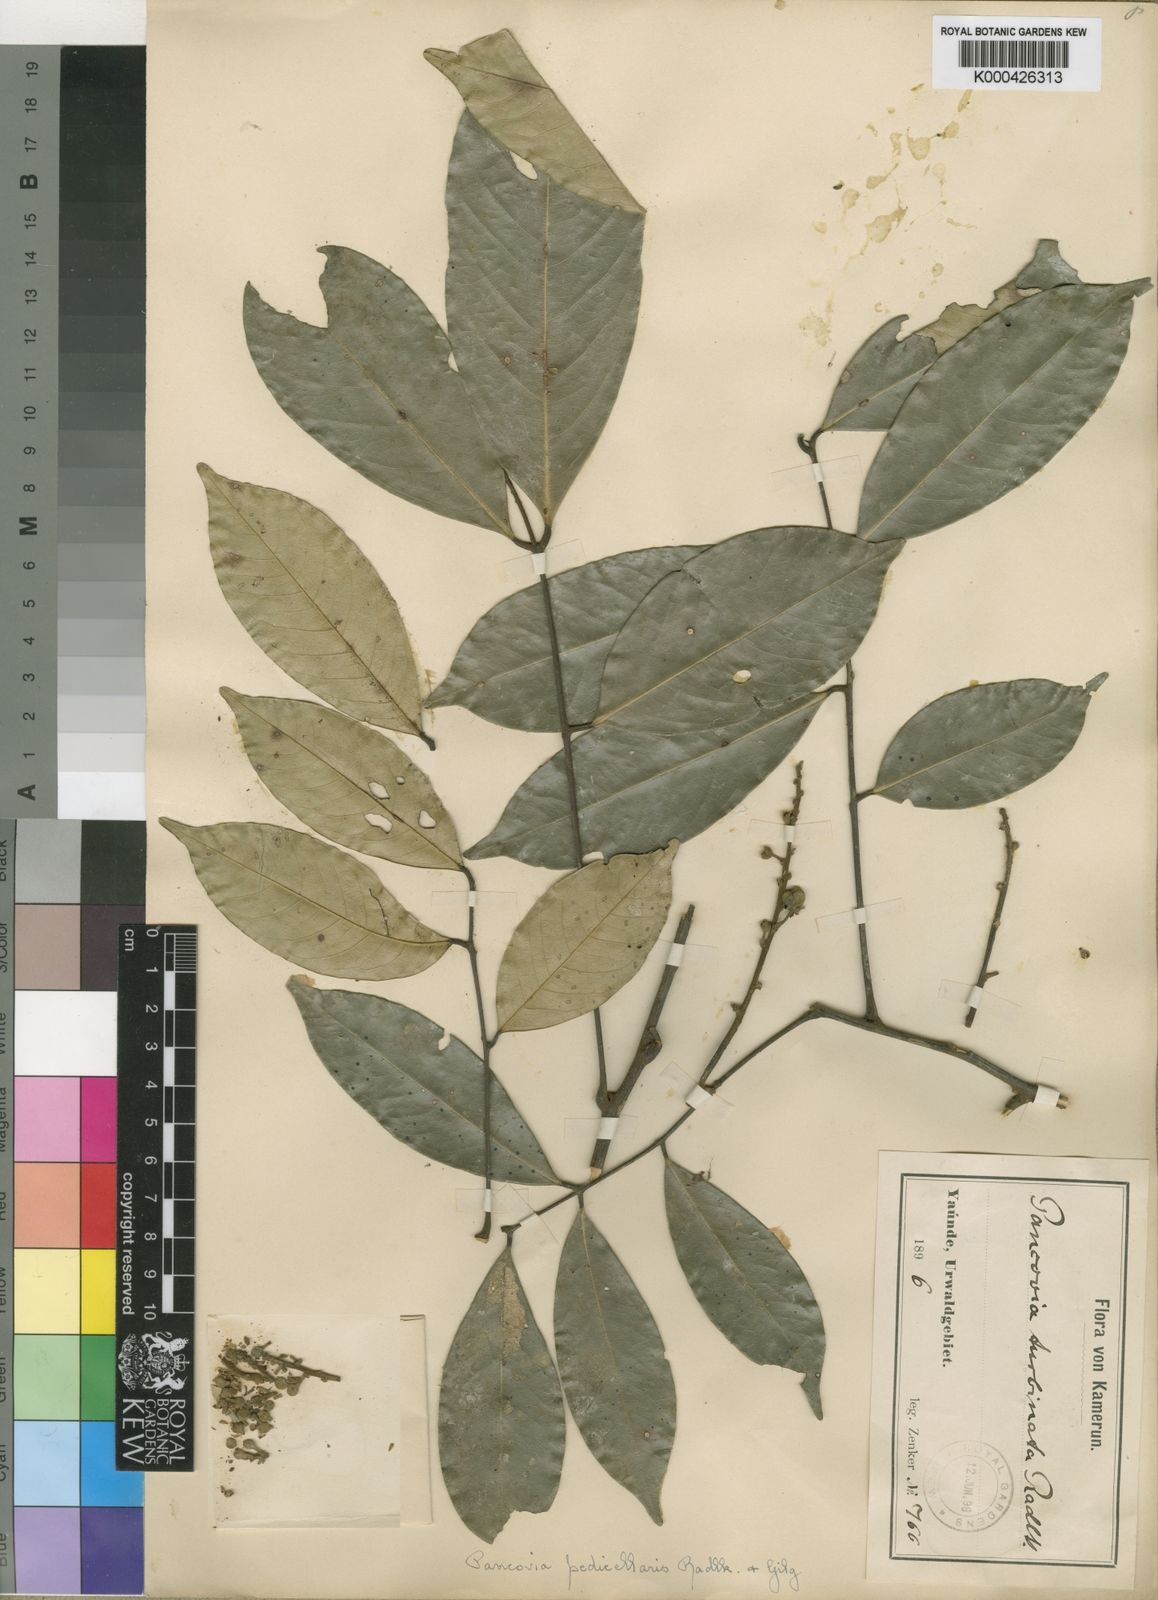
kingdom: Plantae
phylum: Tracheophyta
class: Magnoliopsida
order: Sapindales
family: Sapindaceae
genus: Pancovia
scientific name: Pancovia turbinata
